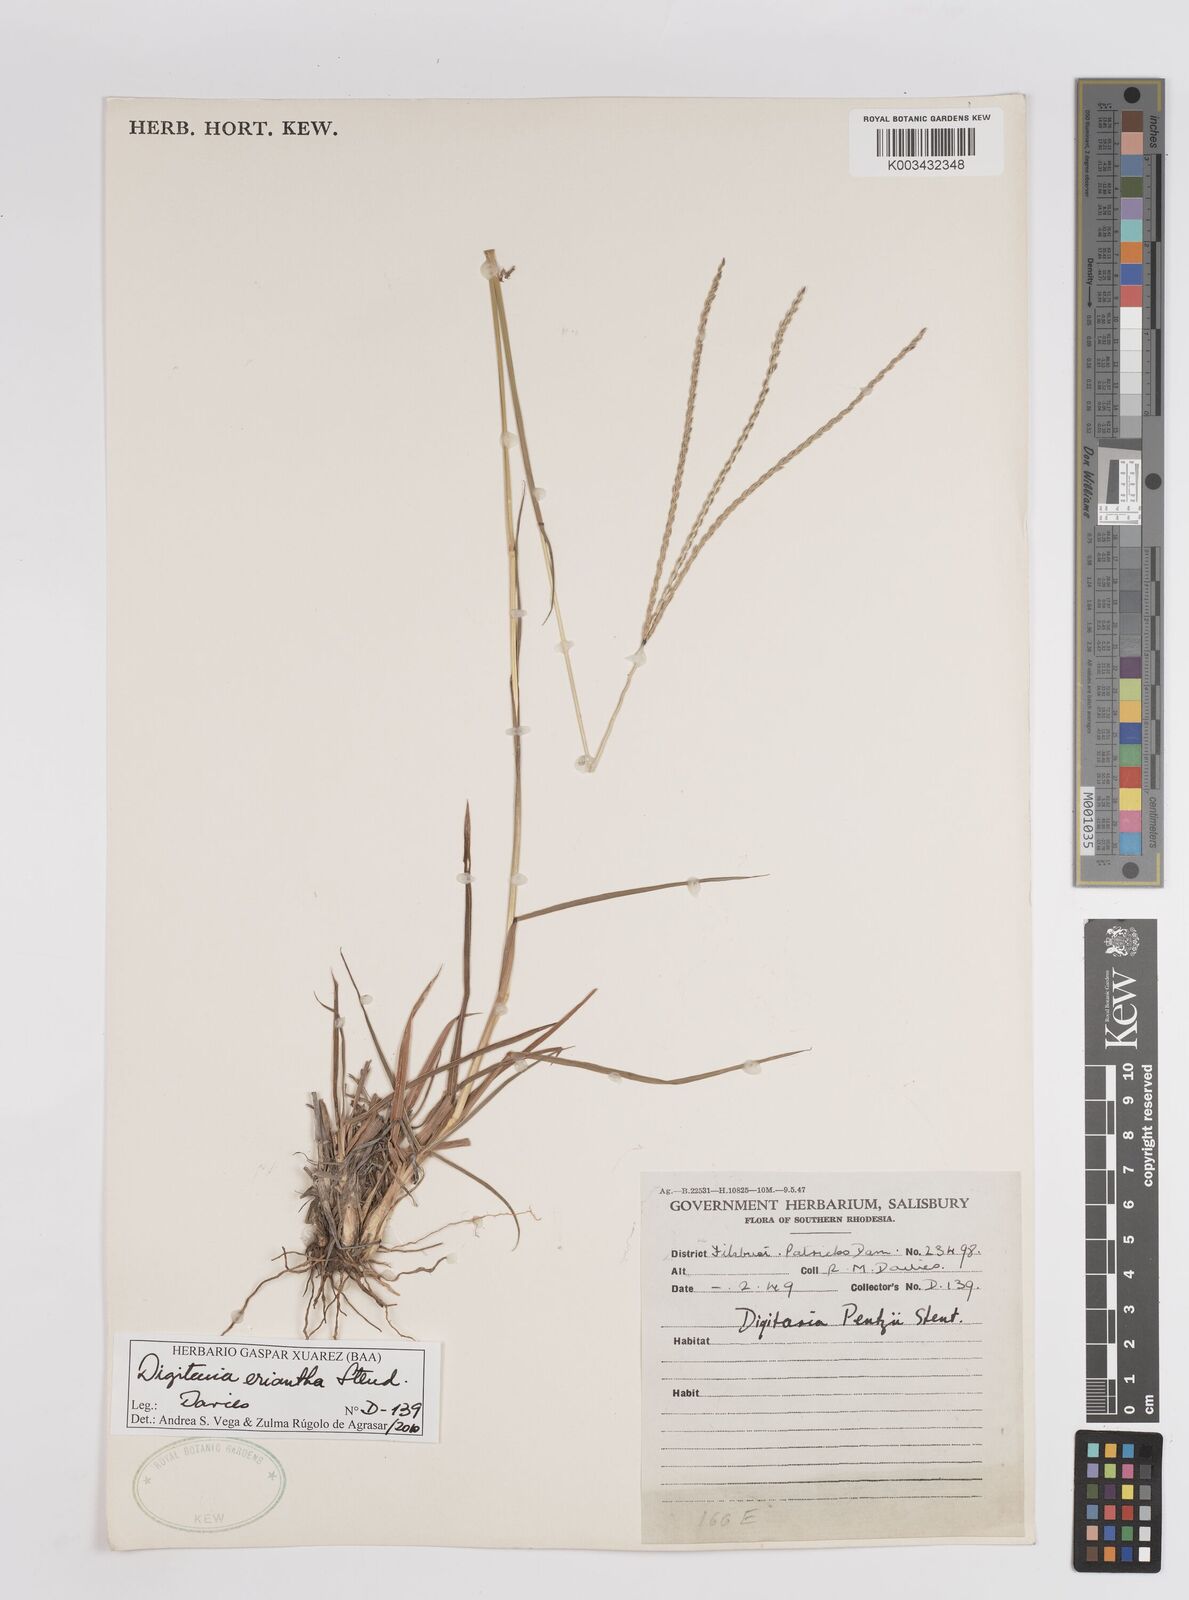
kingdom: Plantae
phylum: Tracheophyta
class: Liliopsida
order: Poales
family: Poaceae
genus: Digitaria
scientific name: Digitaria eriantha
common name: Digitgrass
